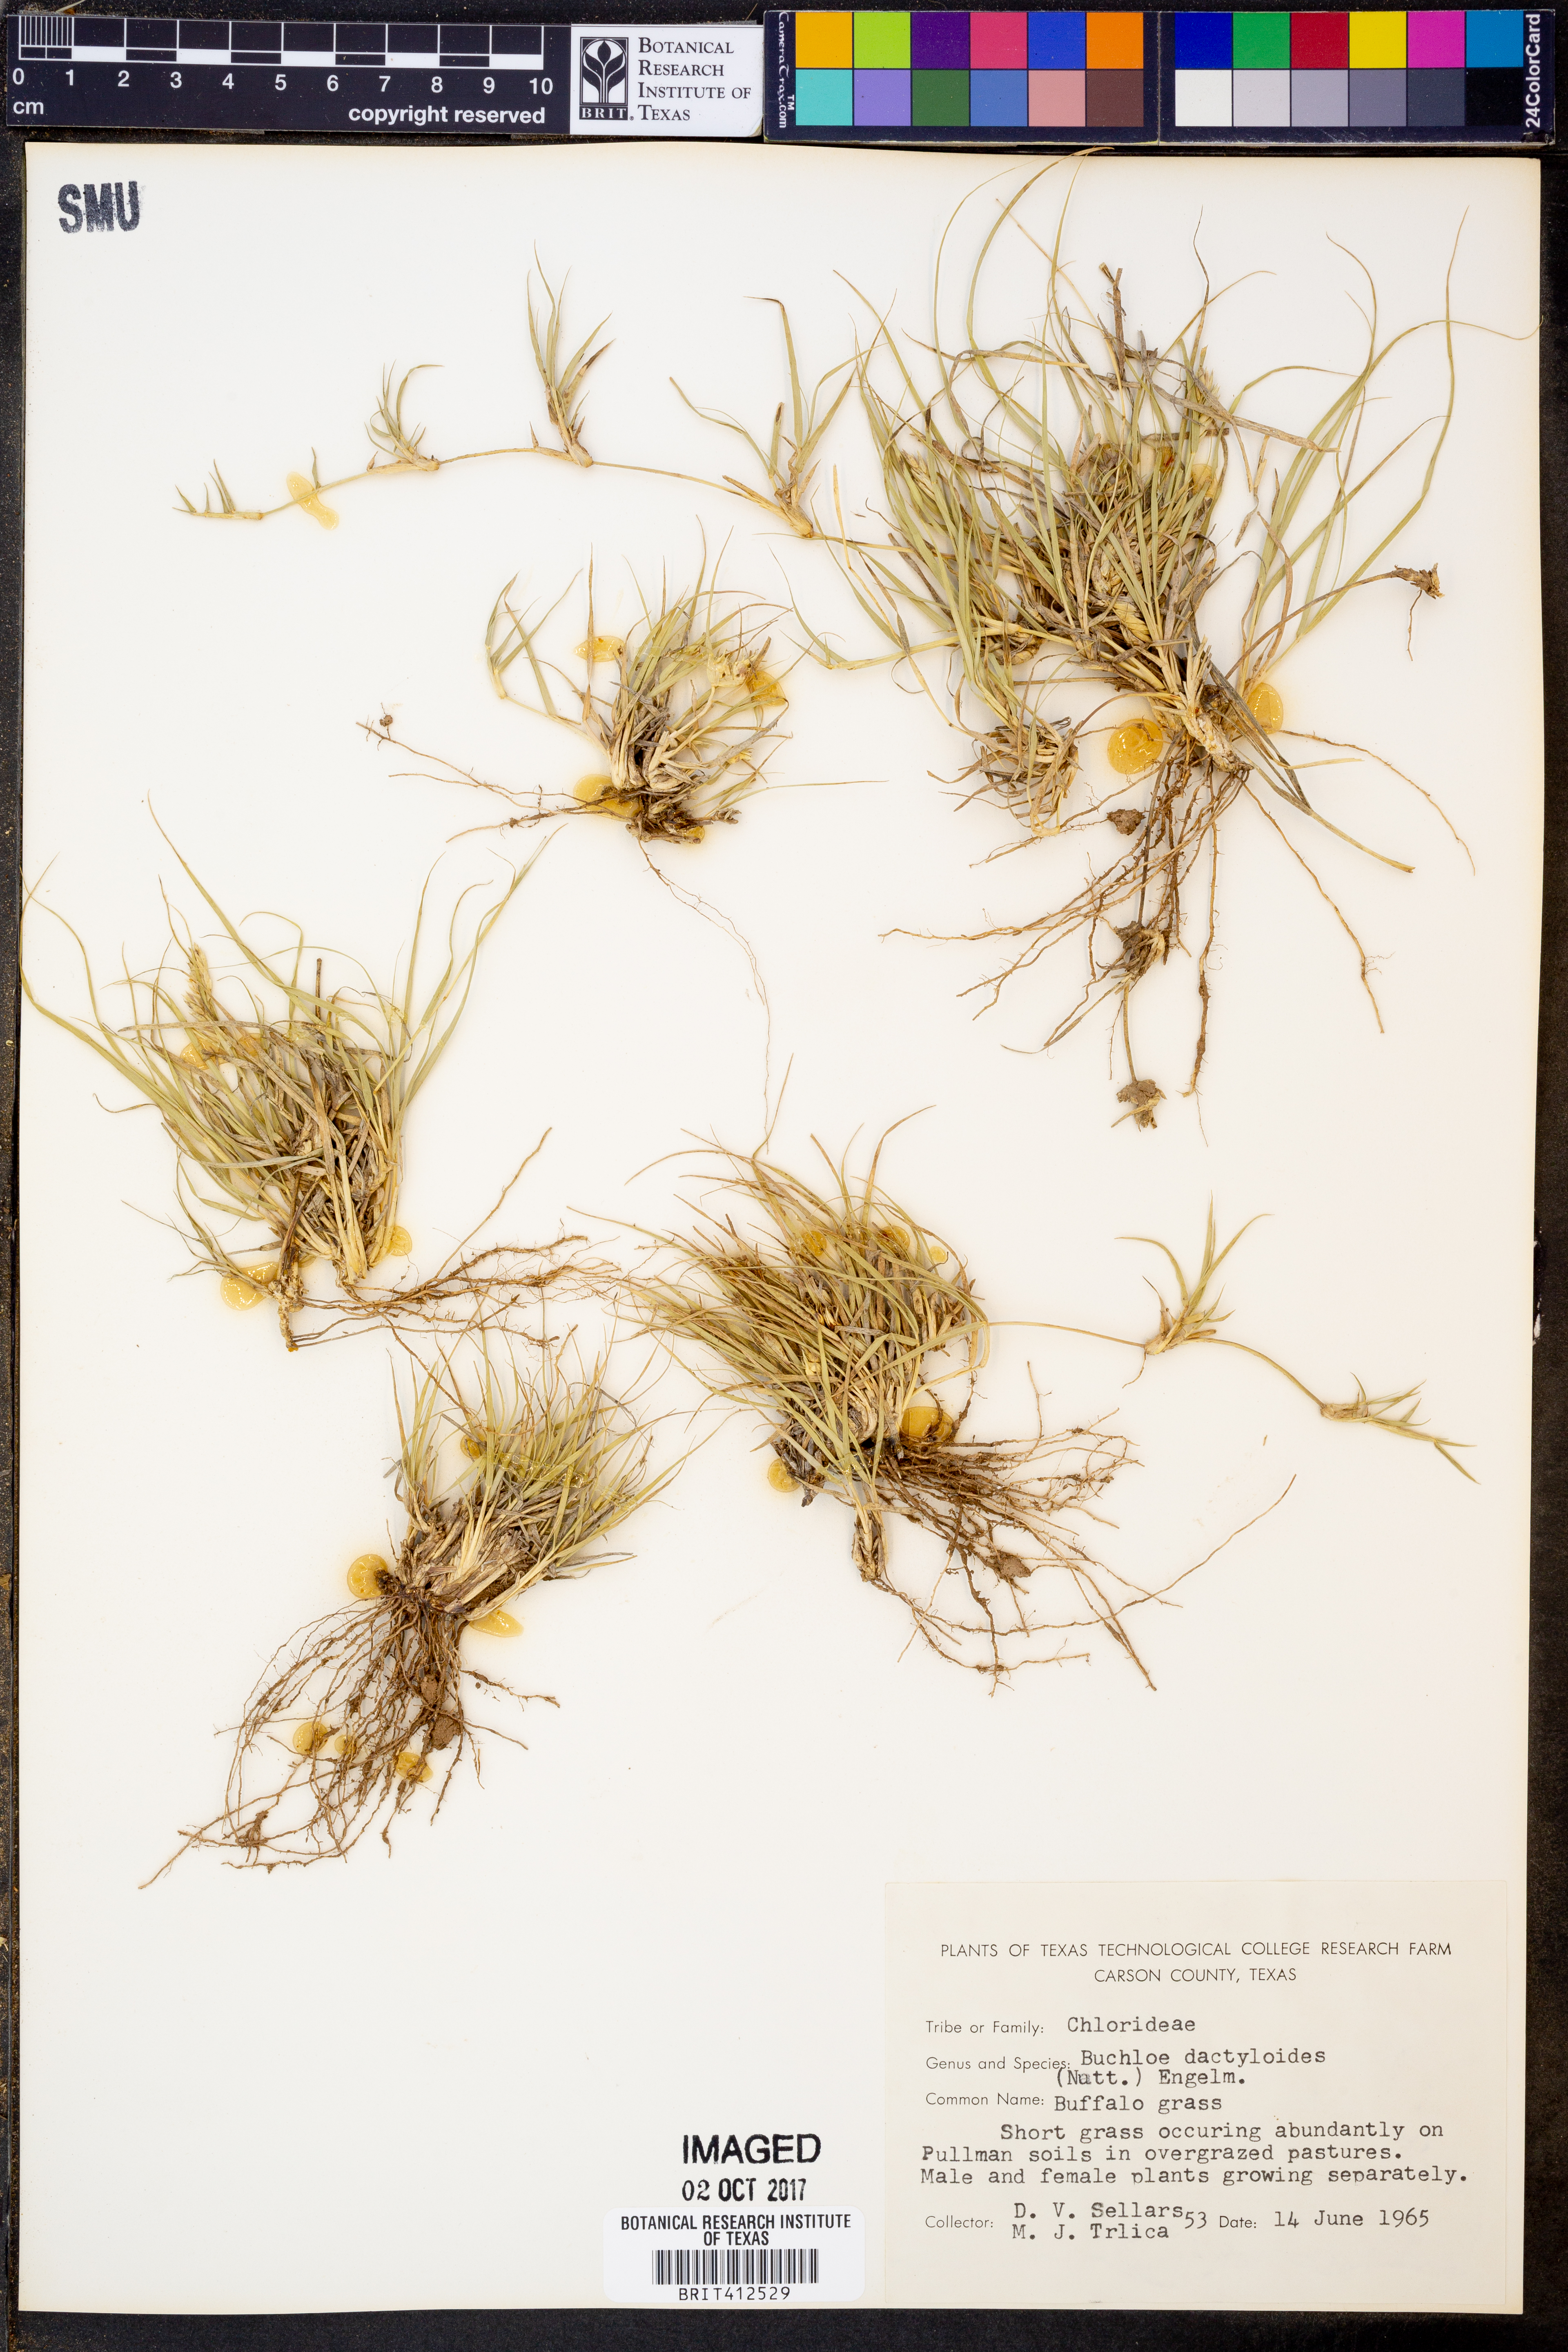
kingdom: Plantae
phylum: Tracheophyta
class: Liliopsida
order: Poales
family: Poaceae
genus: Bouteloua
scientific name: Bouteloua dactyloides
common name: Buffalo grass
